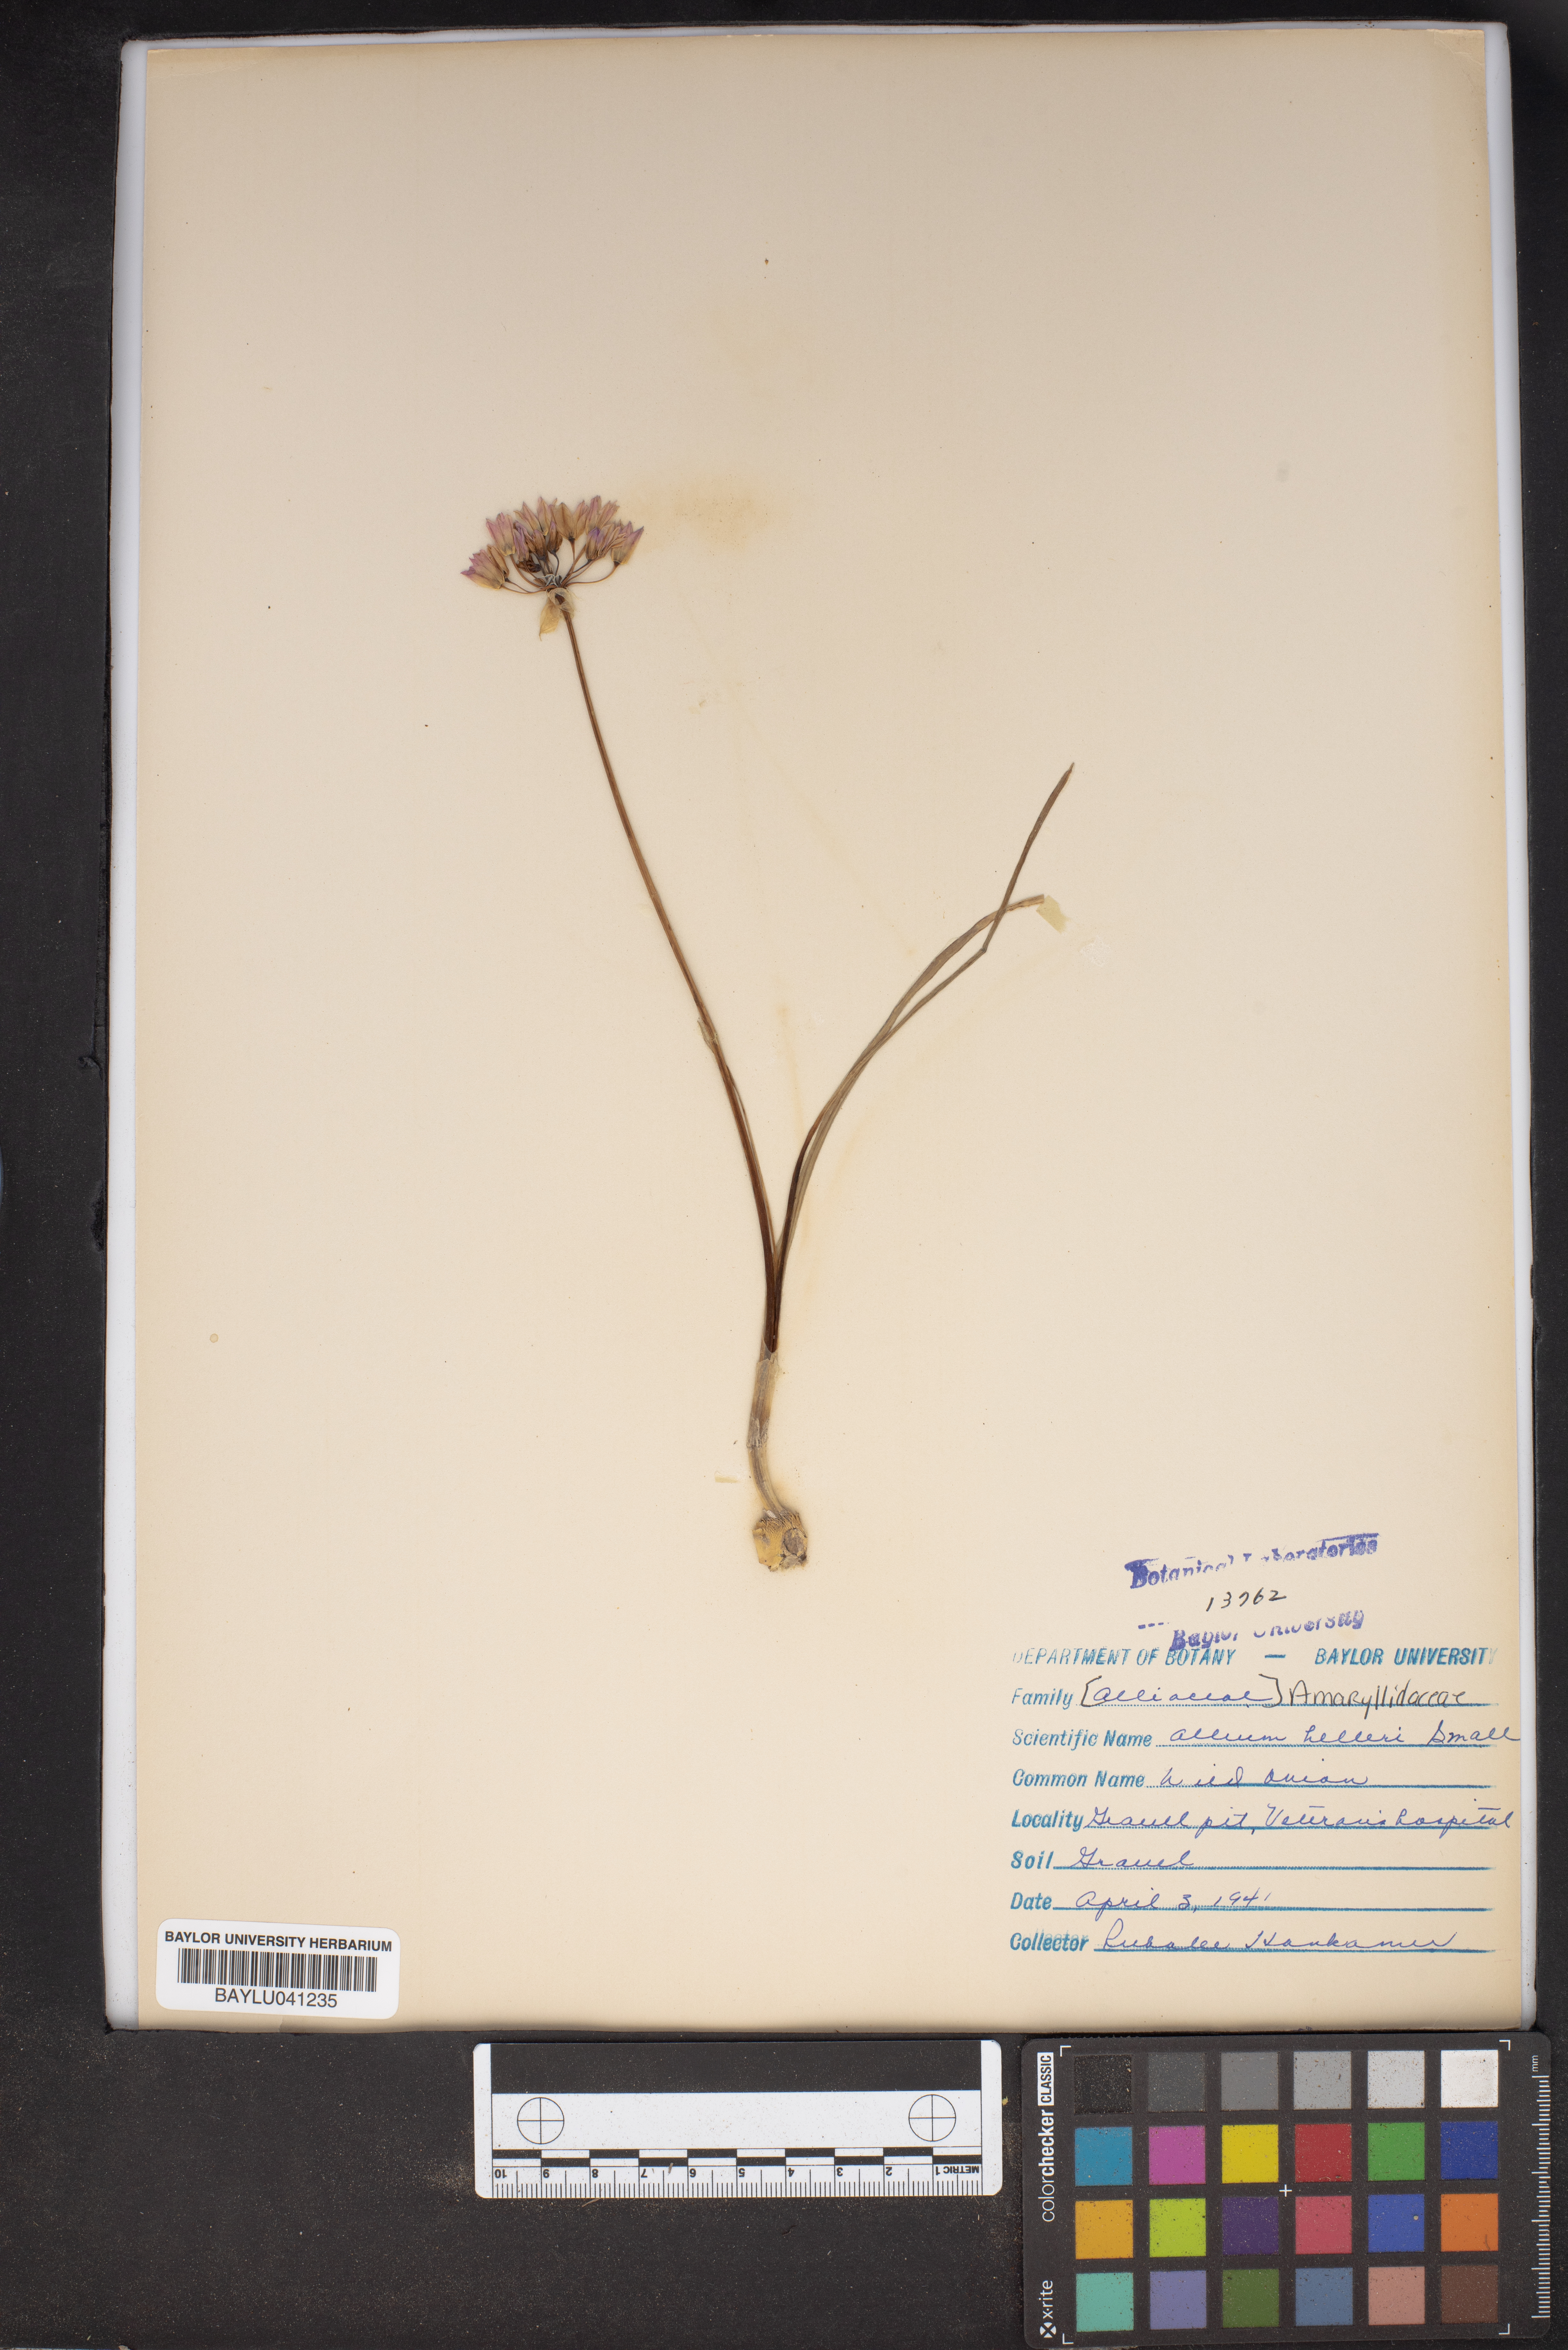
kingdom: Plantae
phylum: Tracheophyta
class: Liliopsida
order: Asparagales
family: Amaryllidaceae
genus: Allium
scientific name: Allium drummondii
